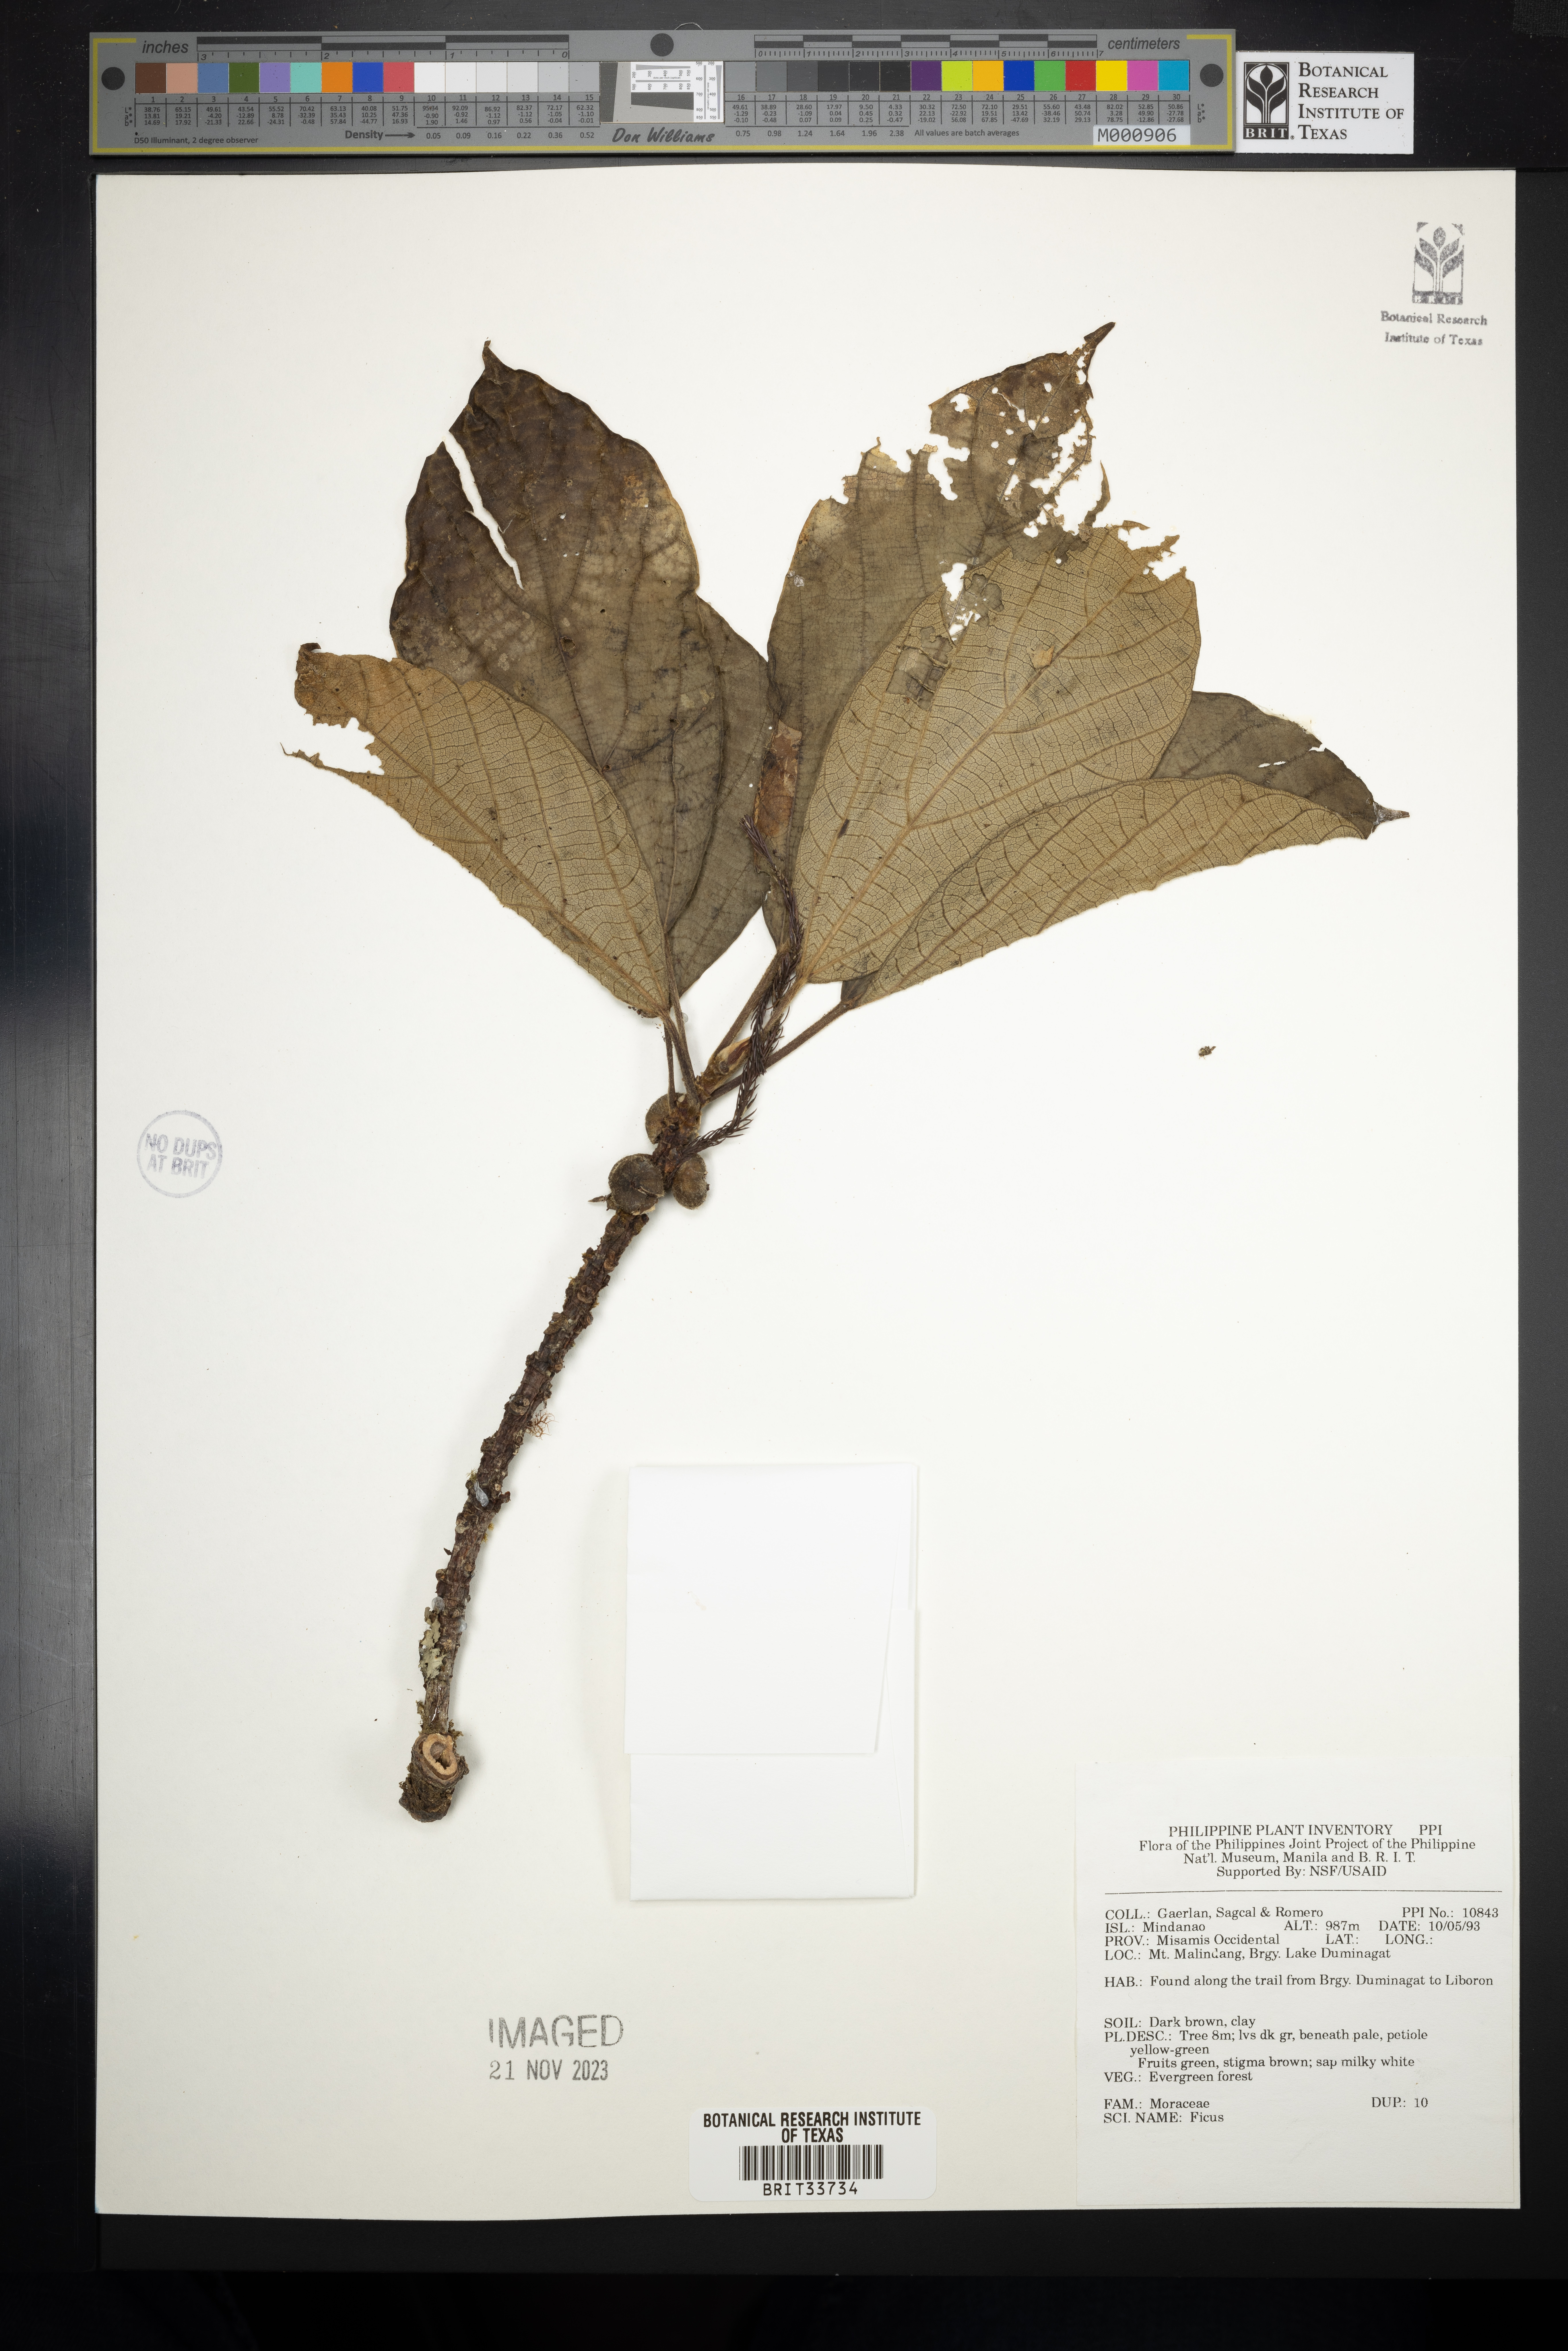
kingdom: Plantae
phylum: Tracheophyta
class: Magnoliopsida
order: Rosales
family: Moraceae
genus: Ficus
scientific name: Ficus
